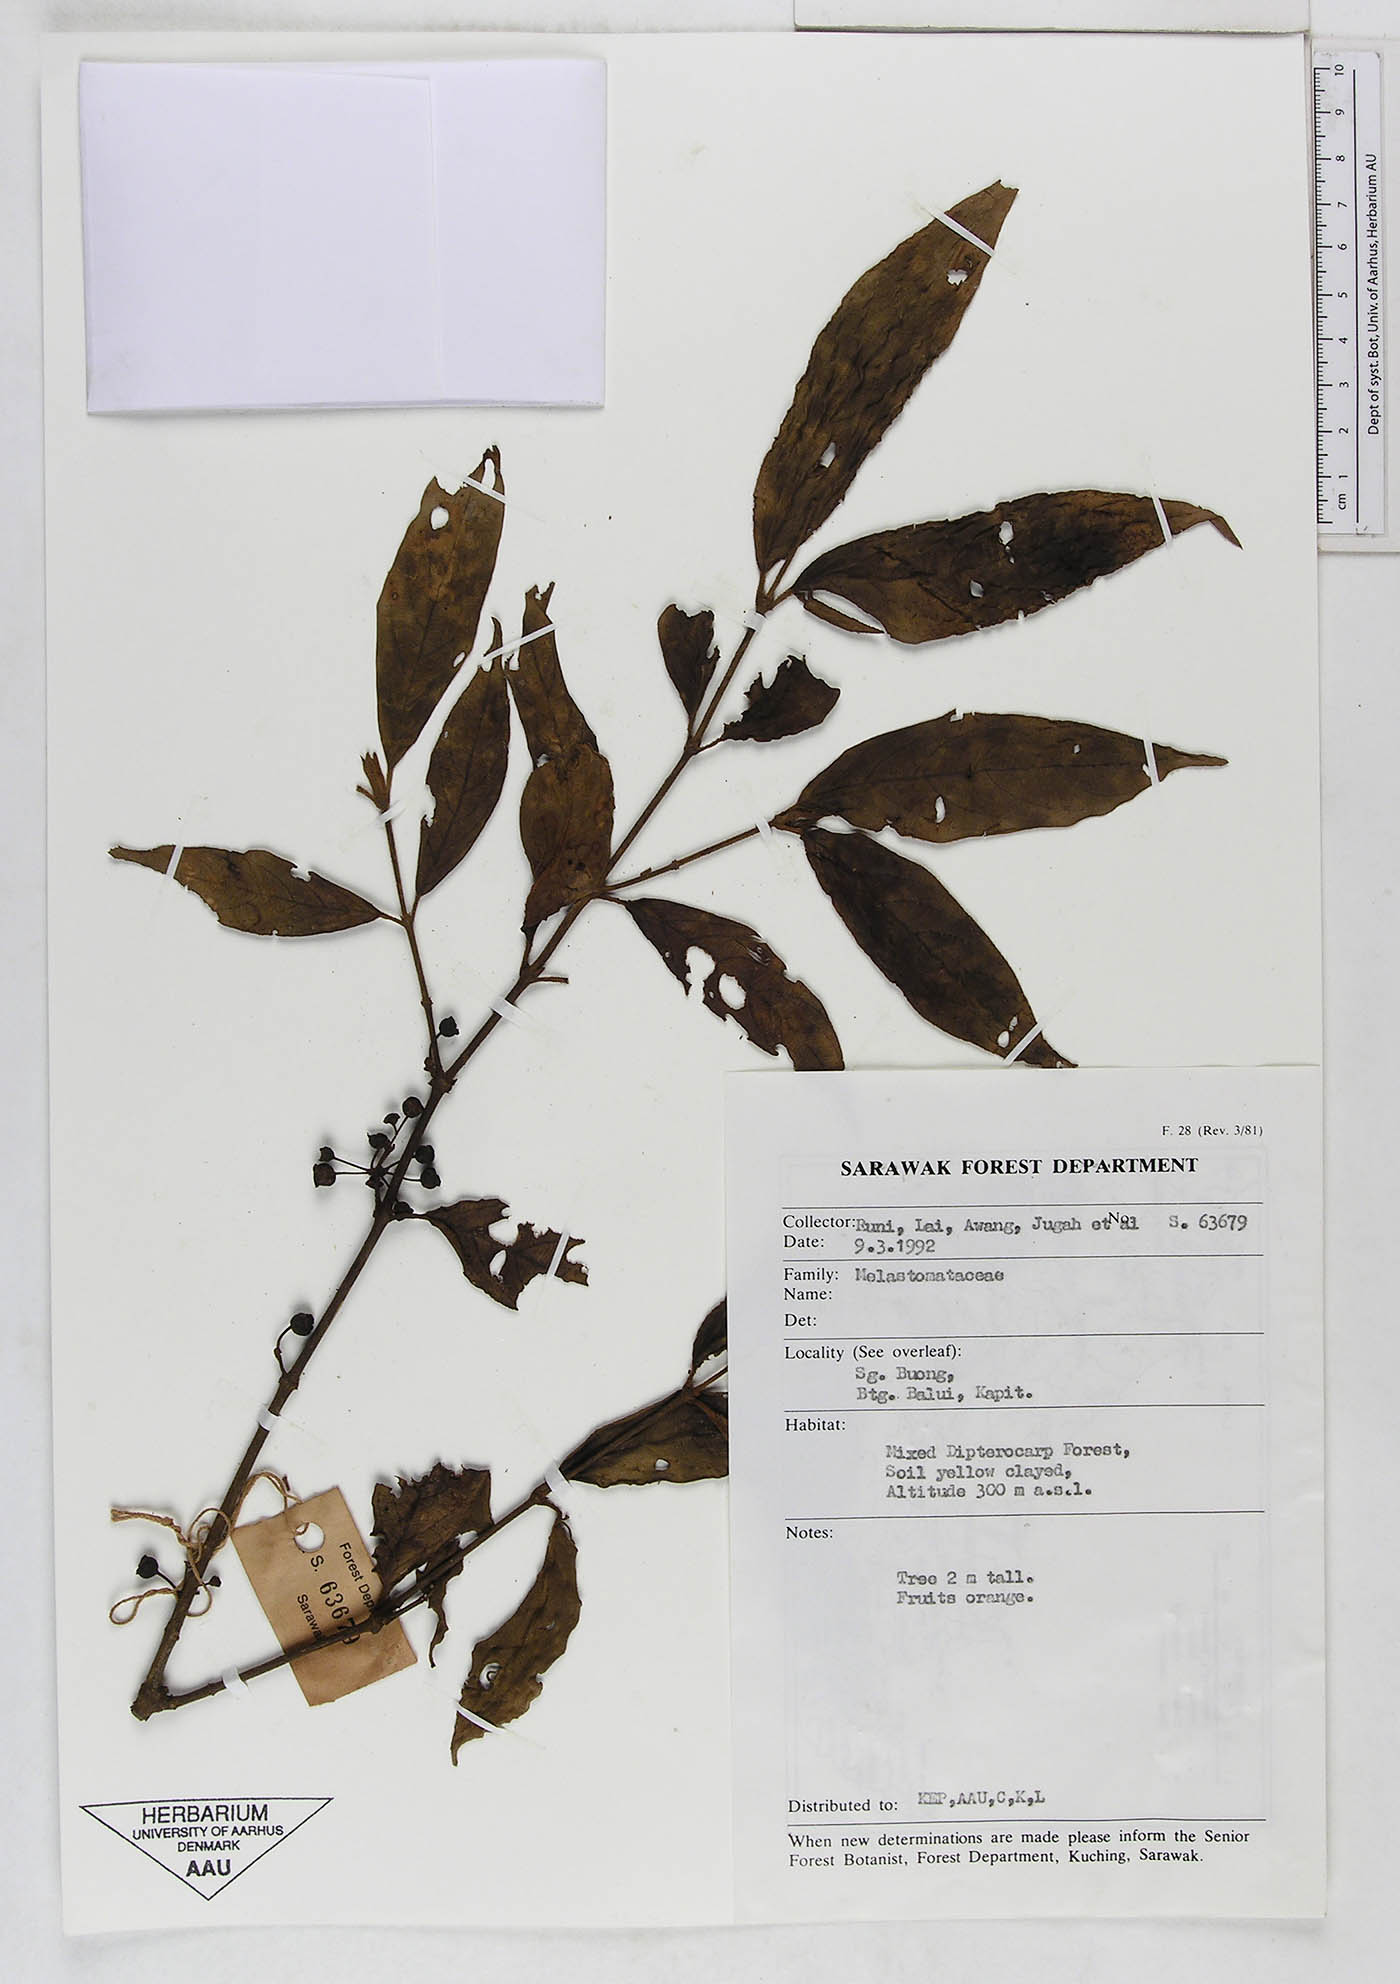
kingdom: Plantae
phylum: Tracheophyta
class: Magnoliopsida
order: Myrtales
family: Melastomataceae
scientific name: Melastomataceae
